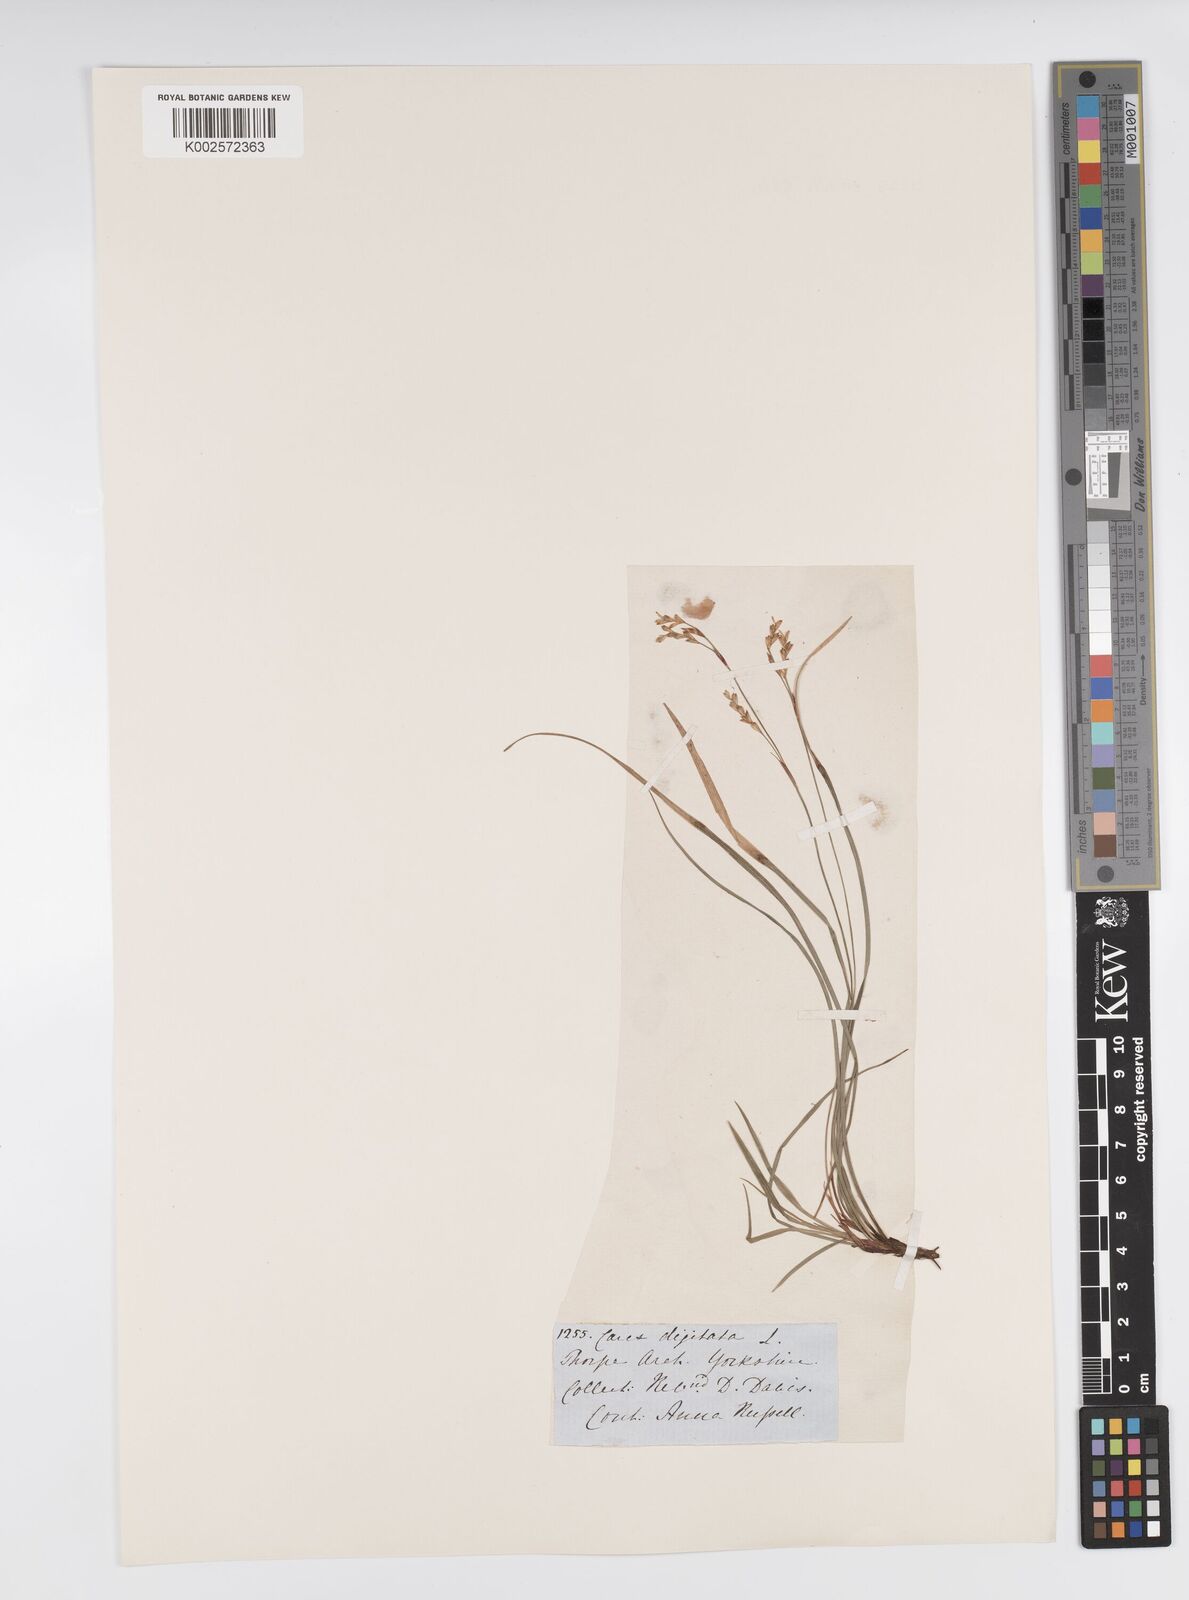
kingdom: Plantae
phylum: Tracheophyta
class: Liliopsida
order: Poales
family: Cyperaceae
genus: Carex
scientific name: Carex digitata
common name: Fingered sedge
